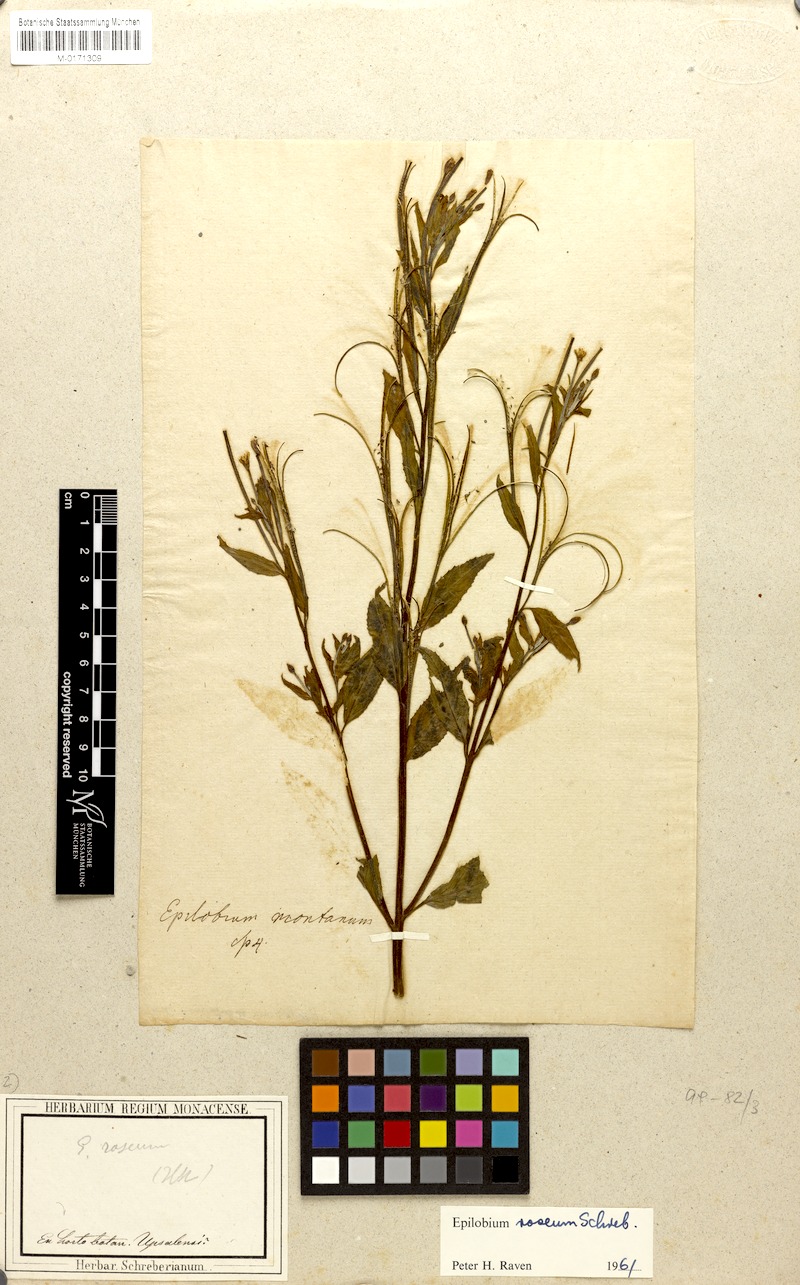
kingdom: Plantae
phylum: Tracheophyta
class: Magnoliopsida
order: Myrtales
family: Onagraceae
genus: Epilobium
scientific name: Epilobium roseum
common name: Pale willowherb
